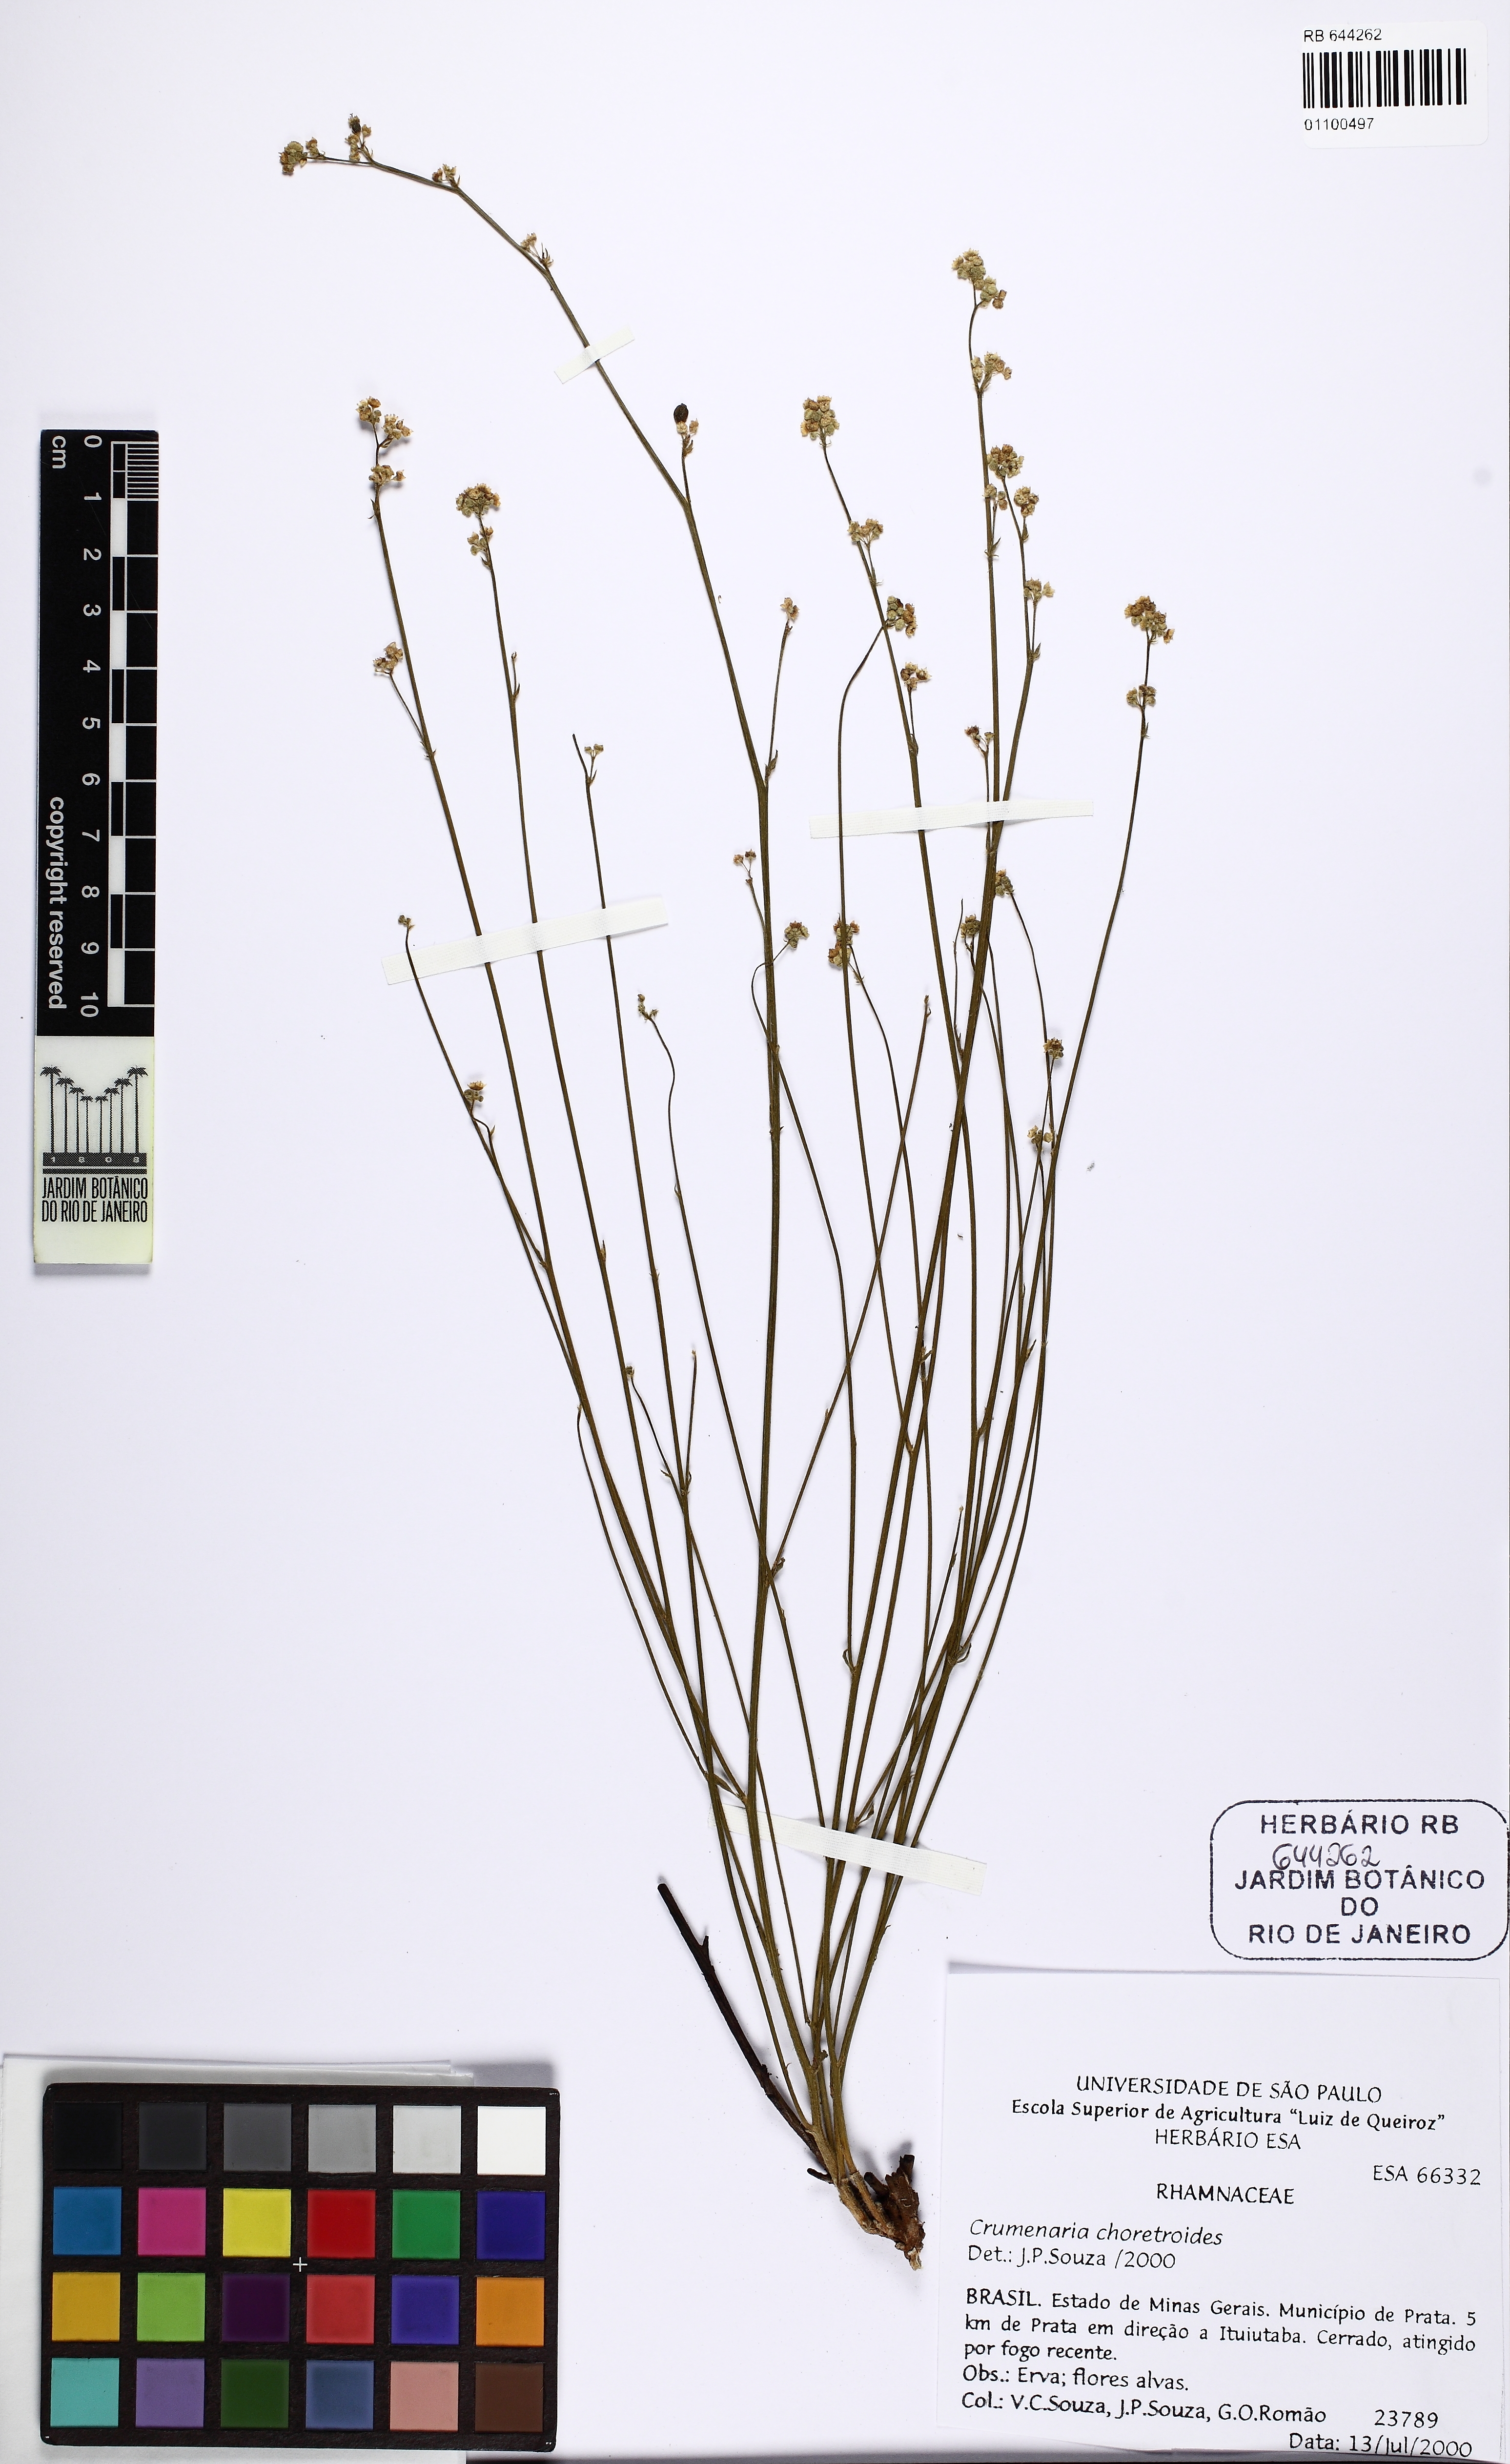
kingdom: Plantae
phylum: Tracheophyta
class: Magnoliopsida
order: Rosales
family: Rhamnaceae
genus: Crumenaria
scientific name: Crumenaria choretroides
